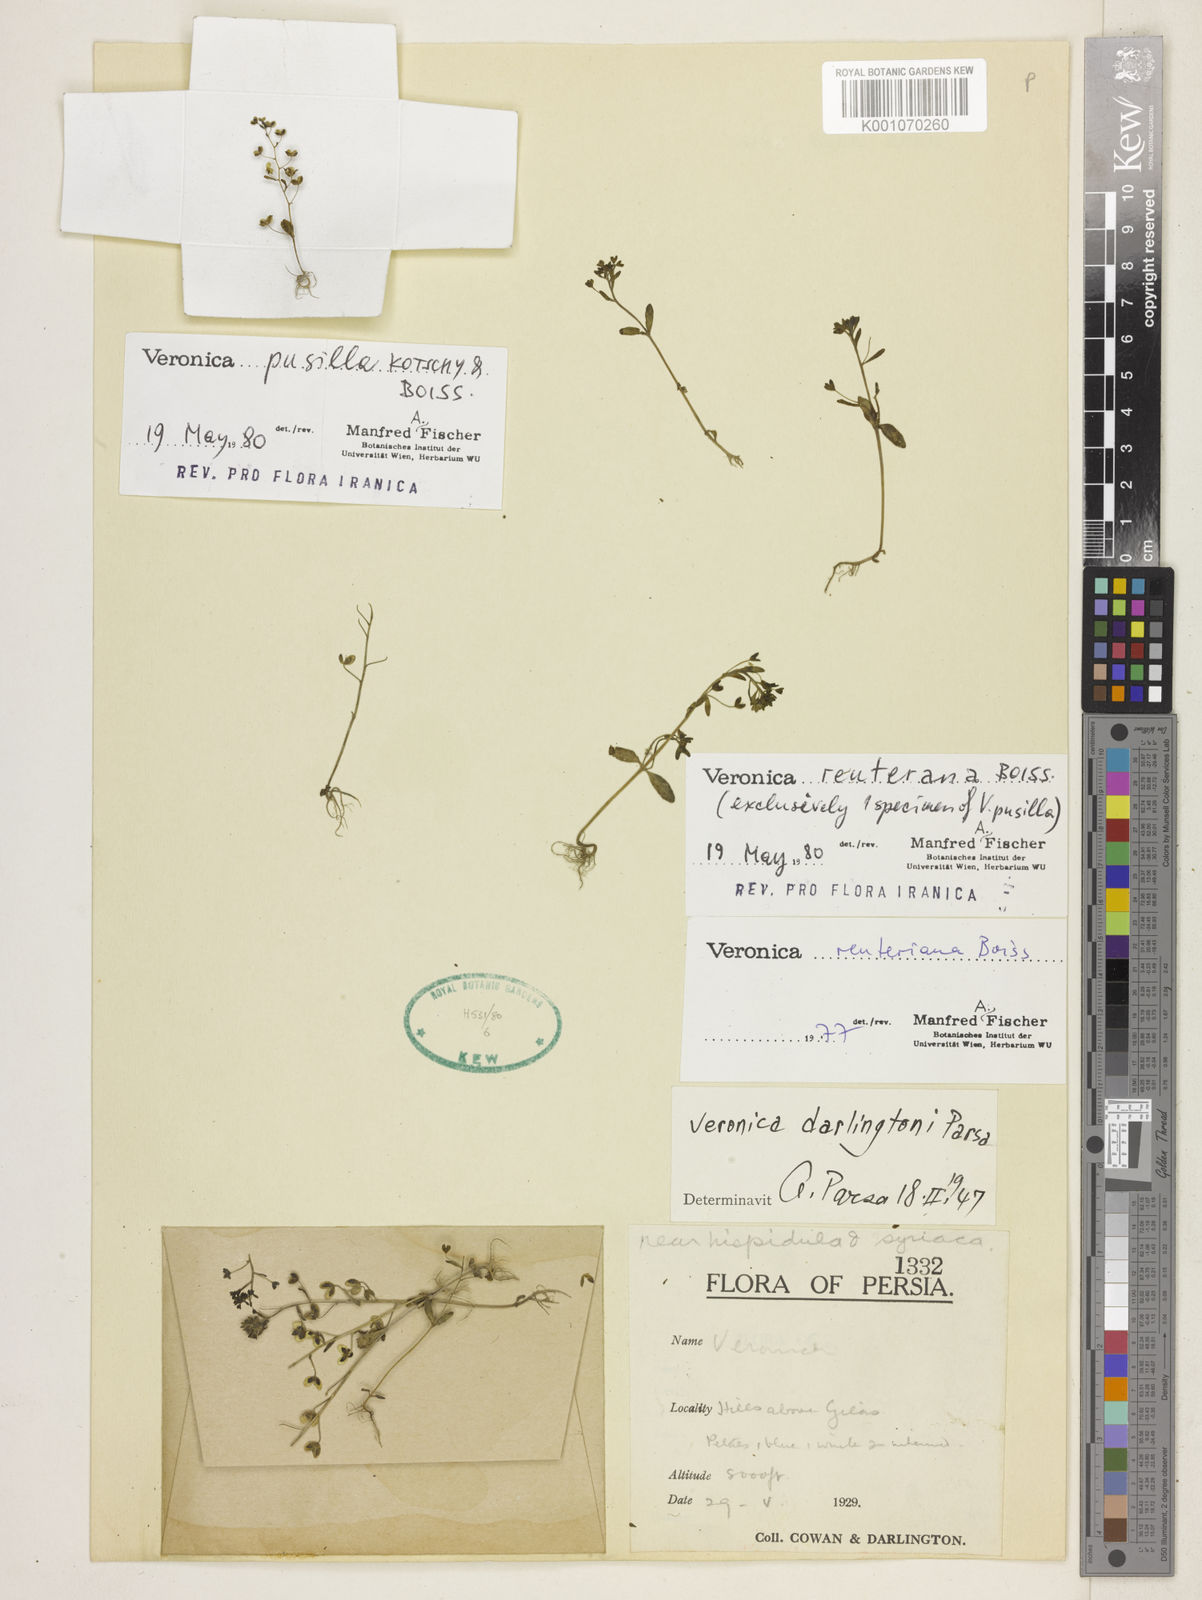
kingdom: Plantae
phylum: Tracheophyta
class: Magnoliopsida
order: Lamiales
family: Plantaginaceae
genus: Veronica
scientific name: Veronica reuteriana
